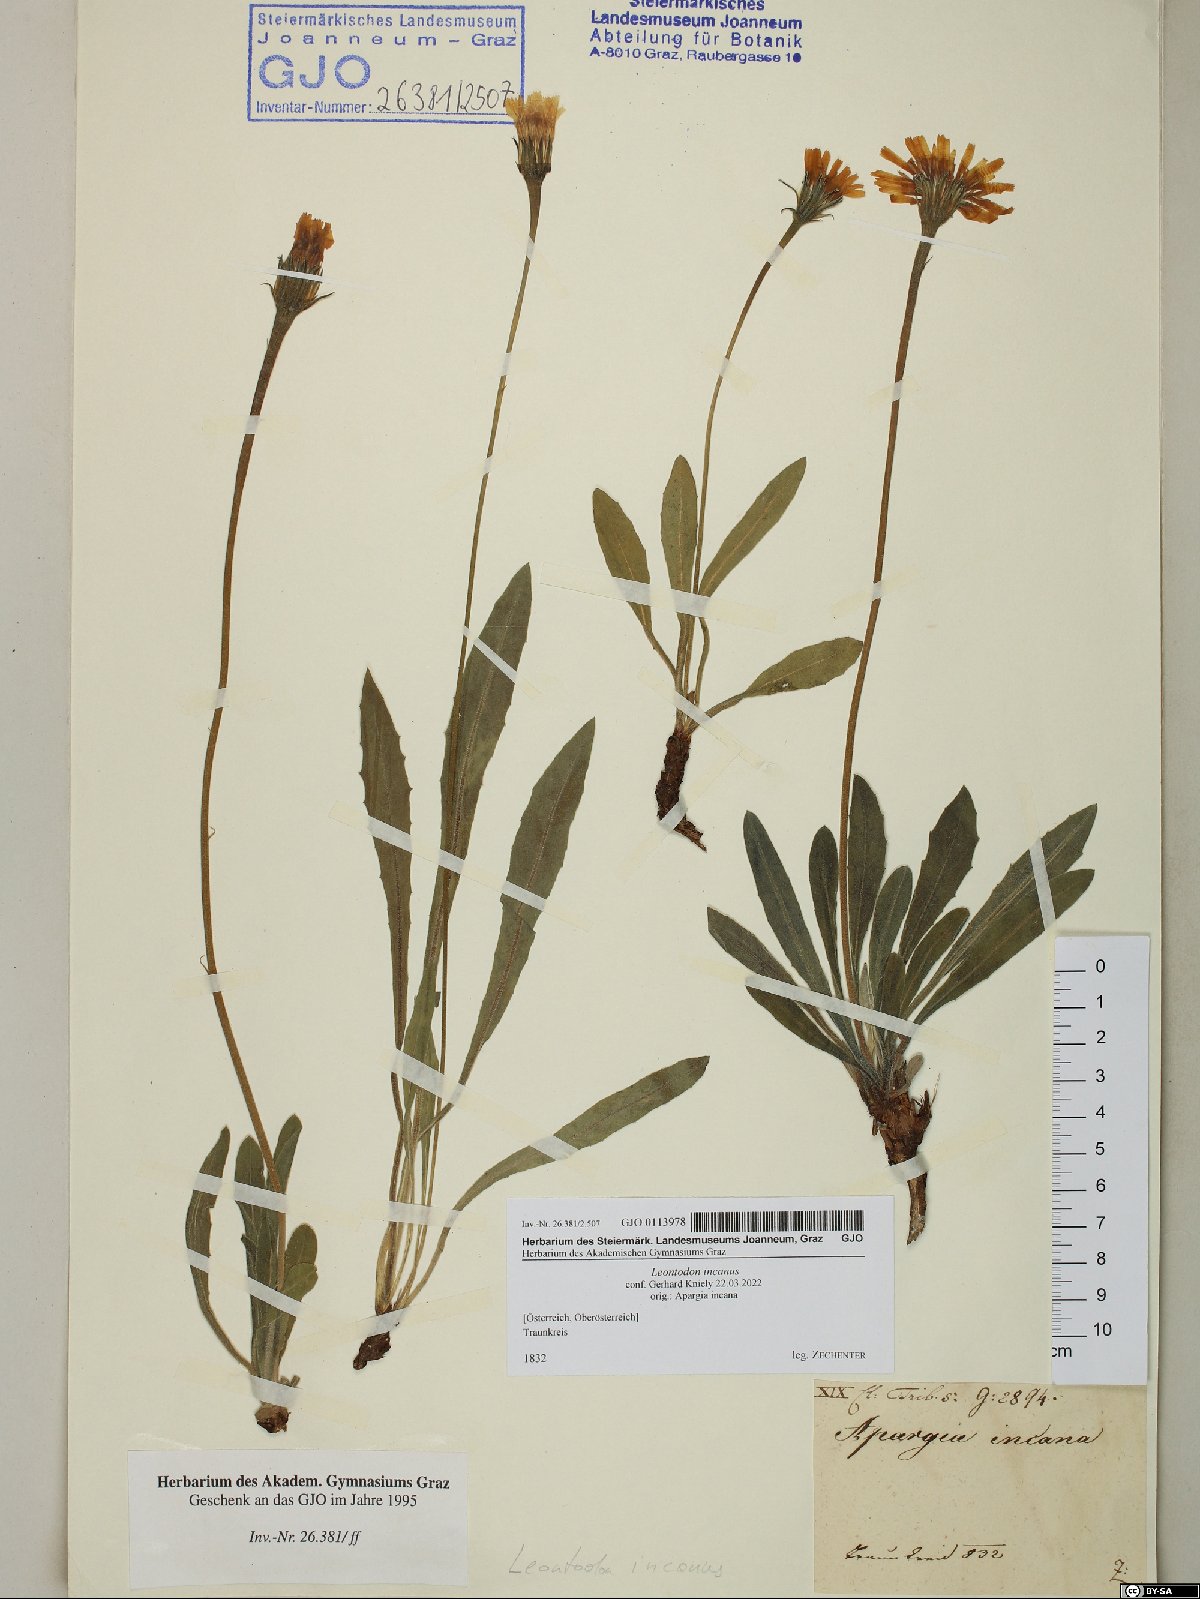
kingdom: Plantae
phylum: Tracheophyta
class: Magnoliopsida
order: Asterales
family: Asteraceae
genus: Leontodon
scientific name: Leontodon incanus
